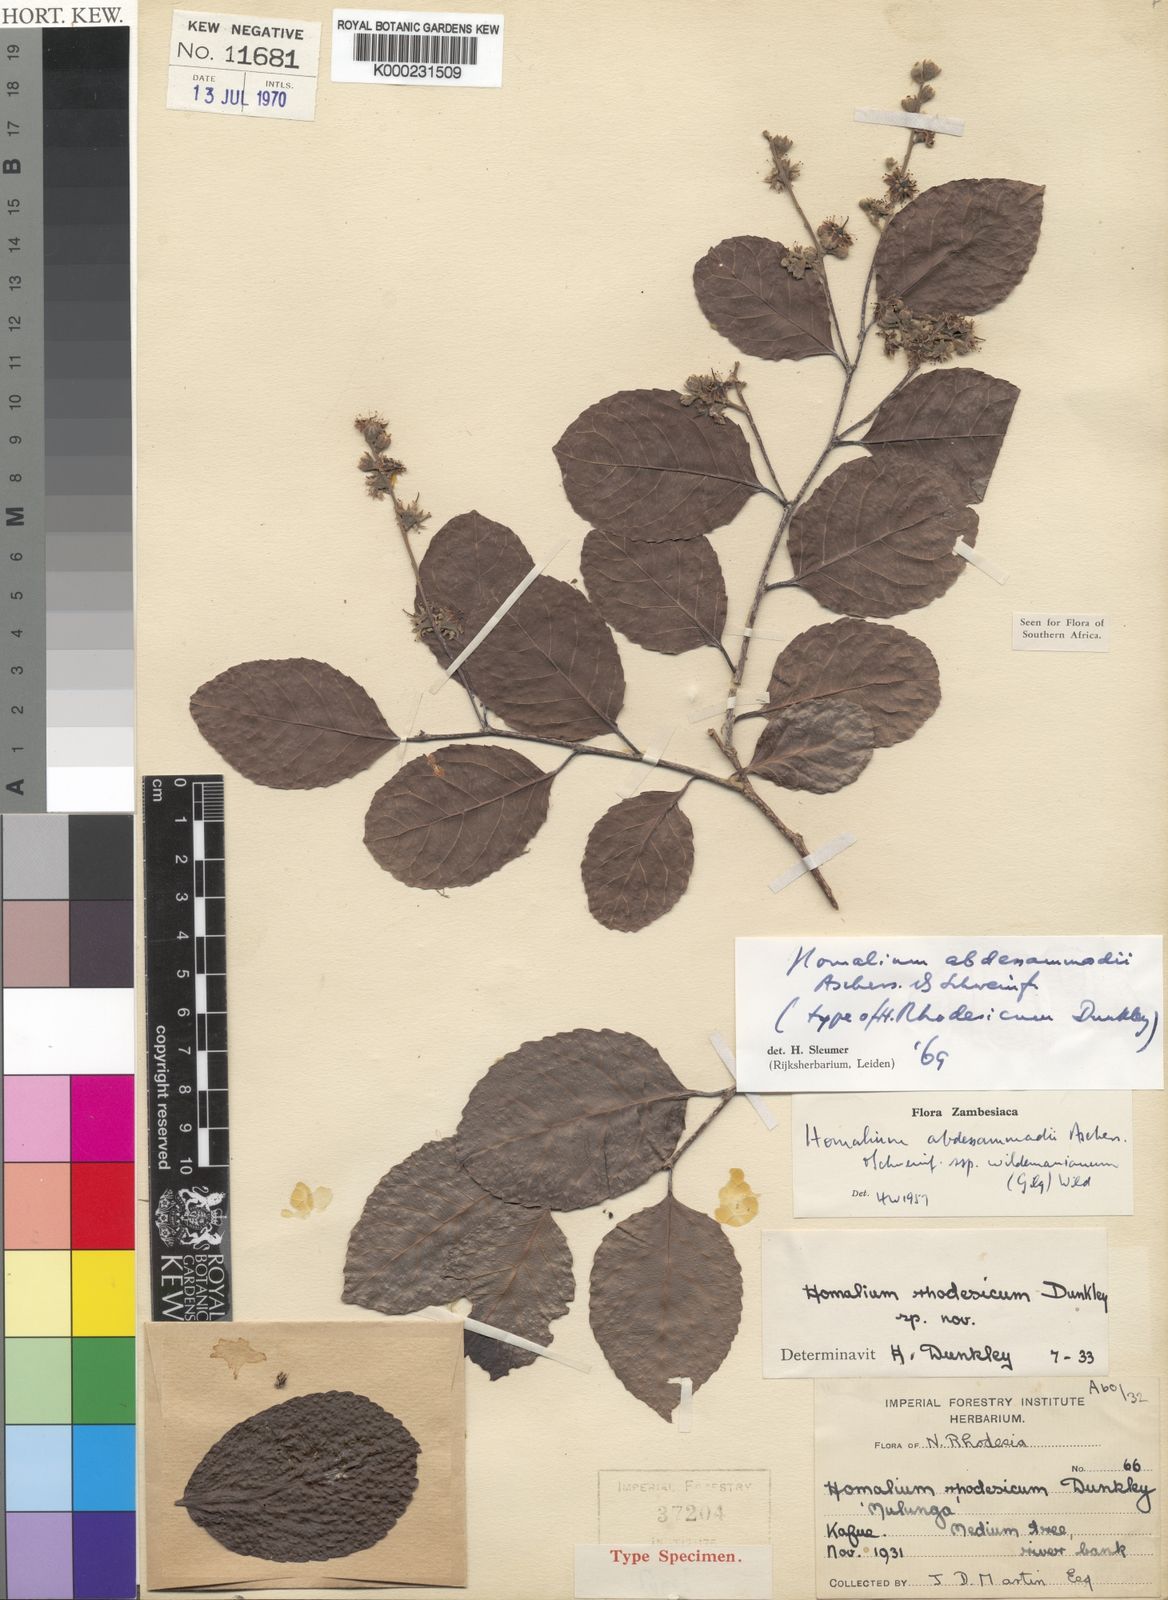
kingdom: Plantae
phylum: Tracheophyta
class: Magnoliopsida
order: Malpighiales
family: Salicaceae
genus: Homalium
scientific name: Homalium abdessammadii
